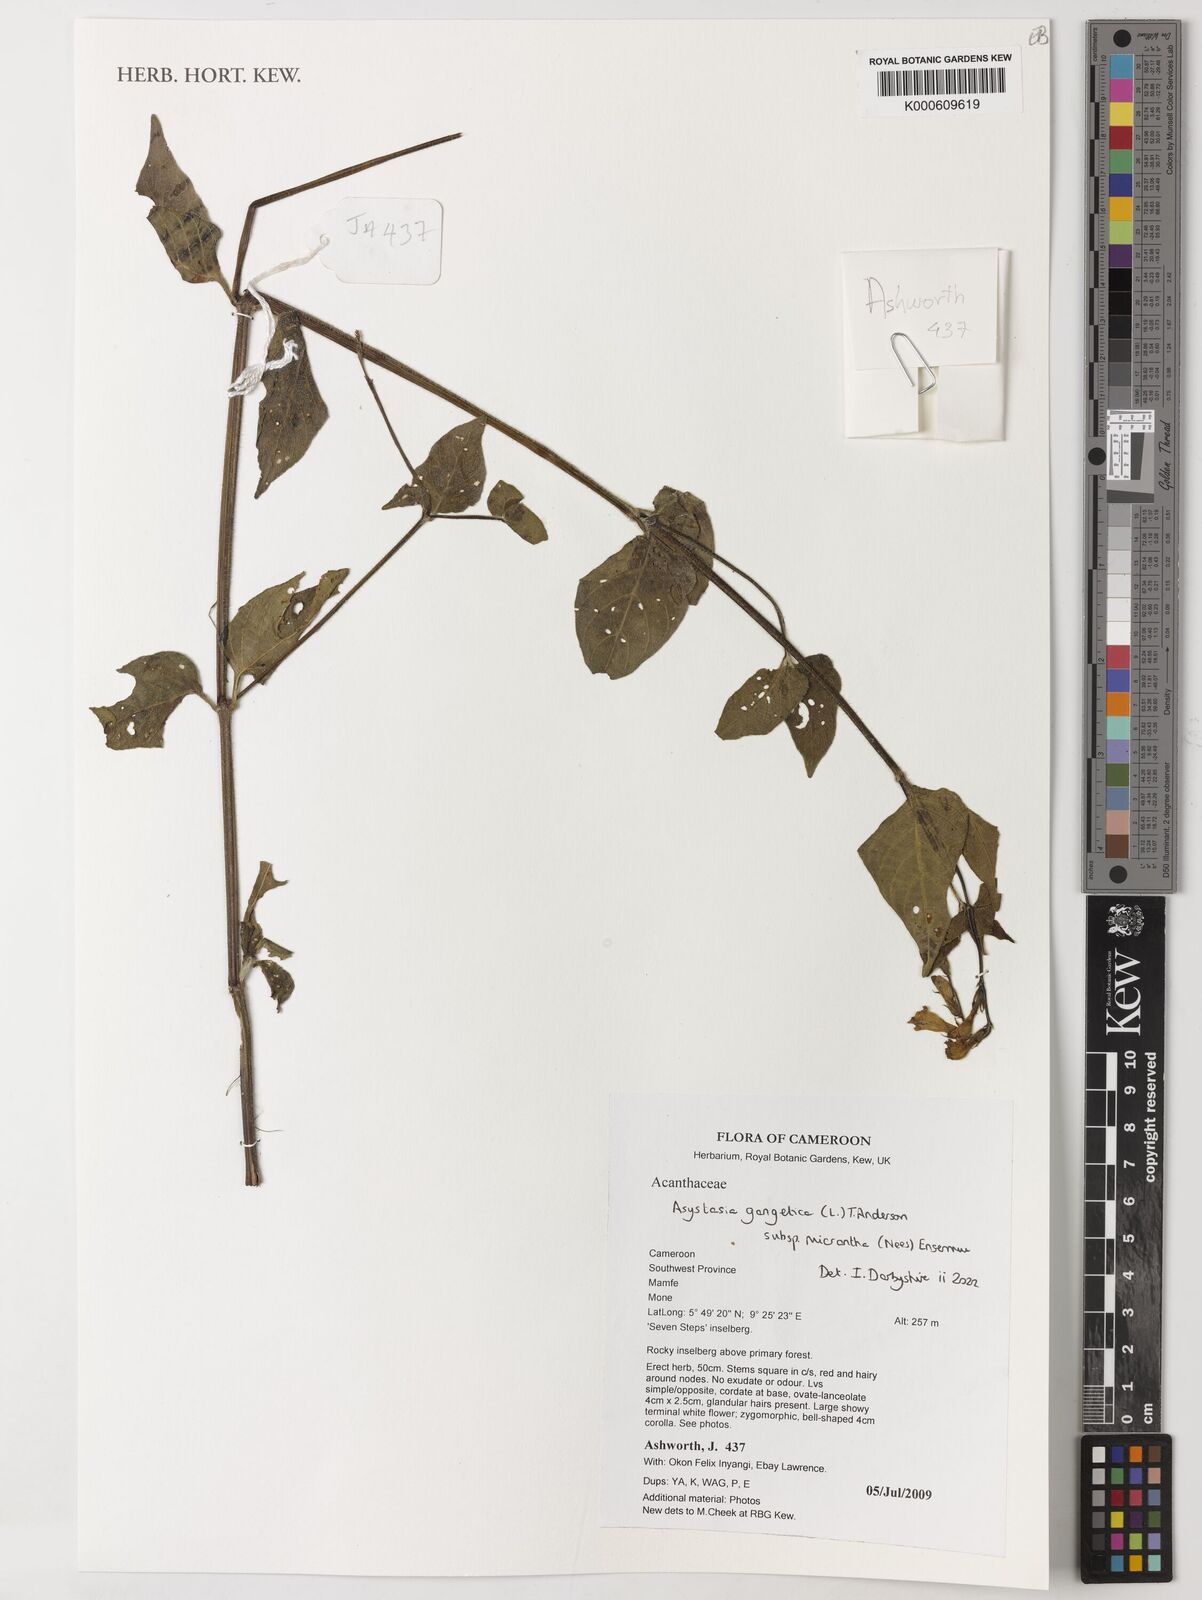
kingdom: Plantae
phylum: Tracheophyta
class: Magnoliopsida
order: Lamiales
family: Acanthaceae
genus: Asystasia
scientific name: Asystasia gangetica
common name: Chinese violet
